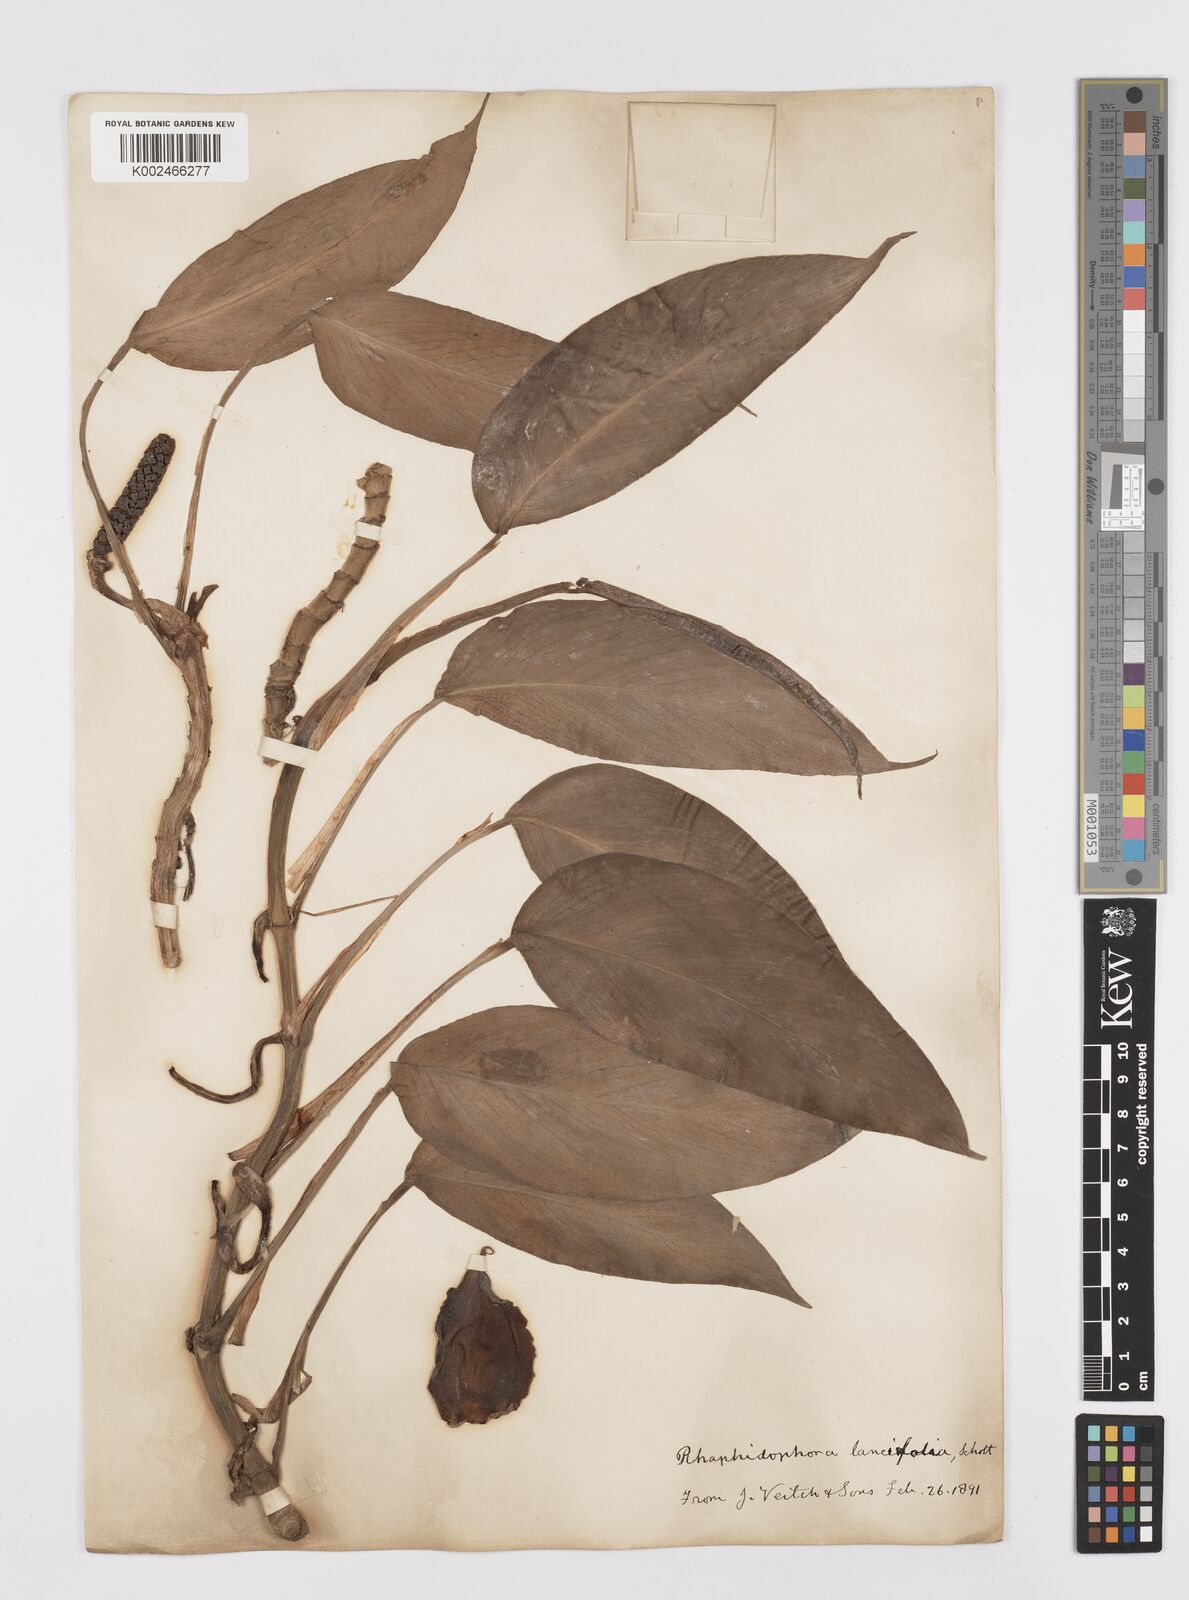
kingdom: Plantae
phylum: Tracheophyta
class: Liliopsida
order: Alismatales
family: Araceae
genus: Rhaphidophora
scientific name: Rhaphidophora peepla
